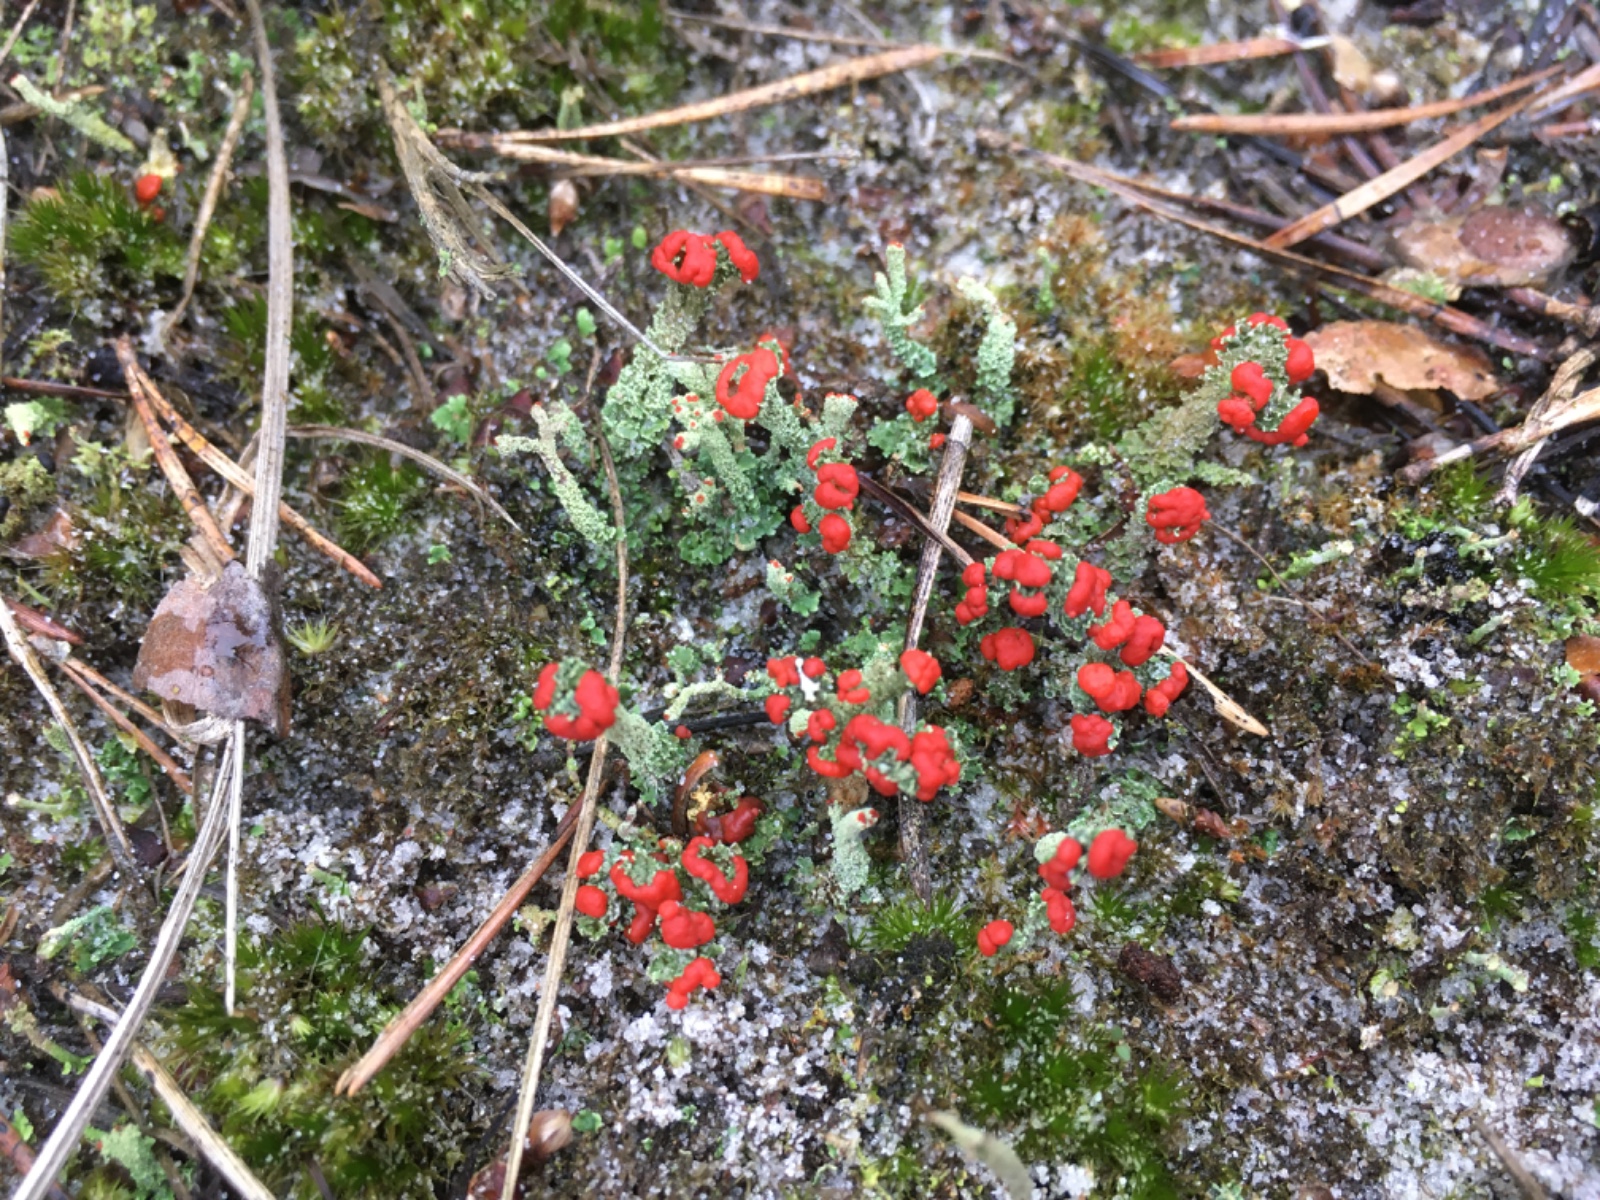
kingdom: Fungi
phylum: Ascomycota
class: Lecanoromycetes
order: Lecanorales
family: Cladoniaceae
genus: Cladonia
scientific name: Cladonia floerkeana
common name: lakrød bægerlav
